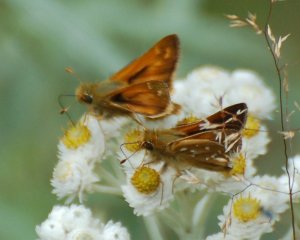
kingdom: Animalia
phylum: Arthropoda
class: Insecta
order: Lepidoptera
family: Hesperiidae
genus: Hesperia
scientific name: Hesperia comma
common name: Common Branded Skipper
